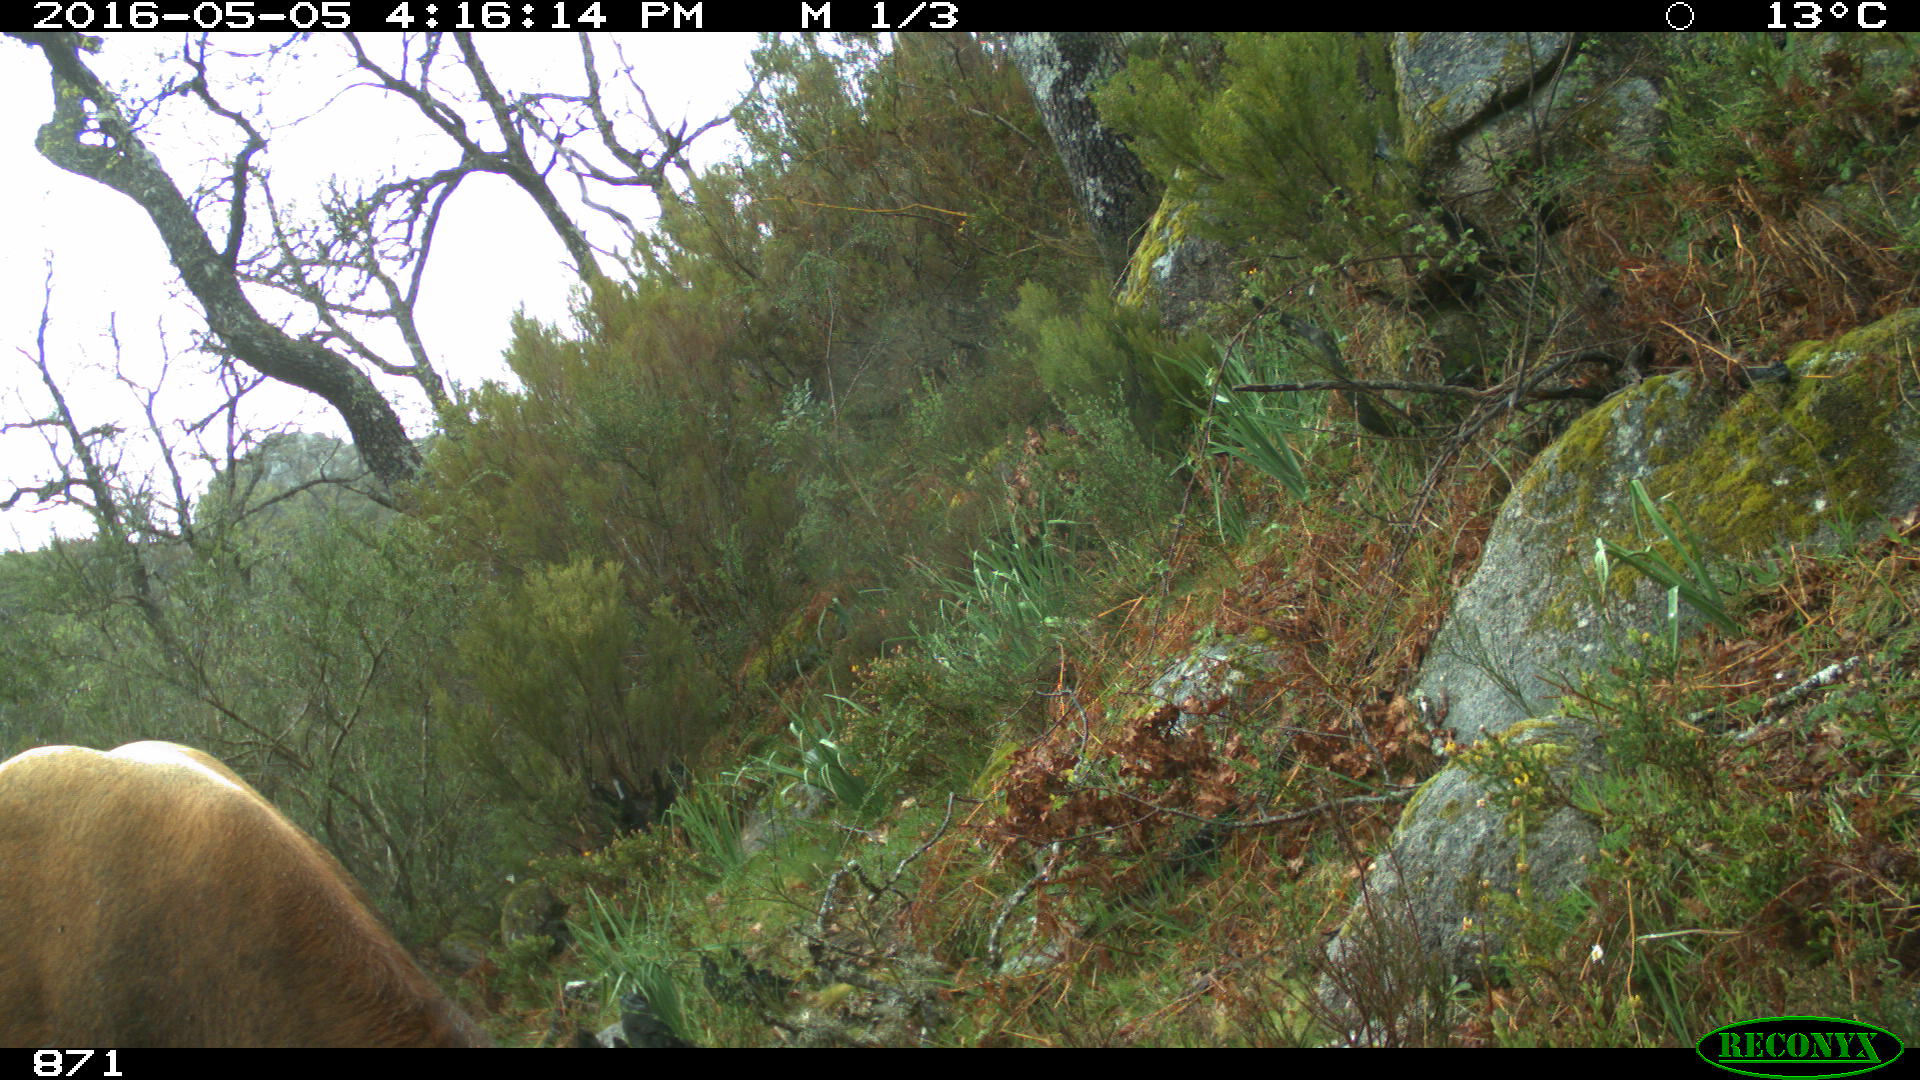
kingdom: Animalia
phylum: Chordata
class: Mammalia
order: Artiodactyla
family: Bovidae
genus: Bos
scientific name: Bos taurus
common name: Domesticated cattle
